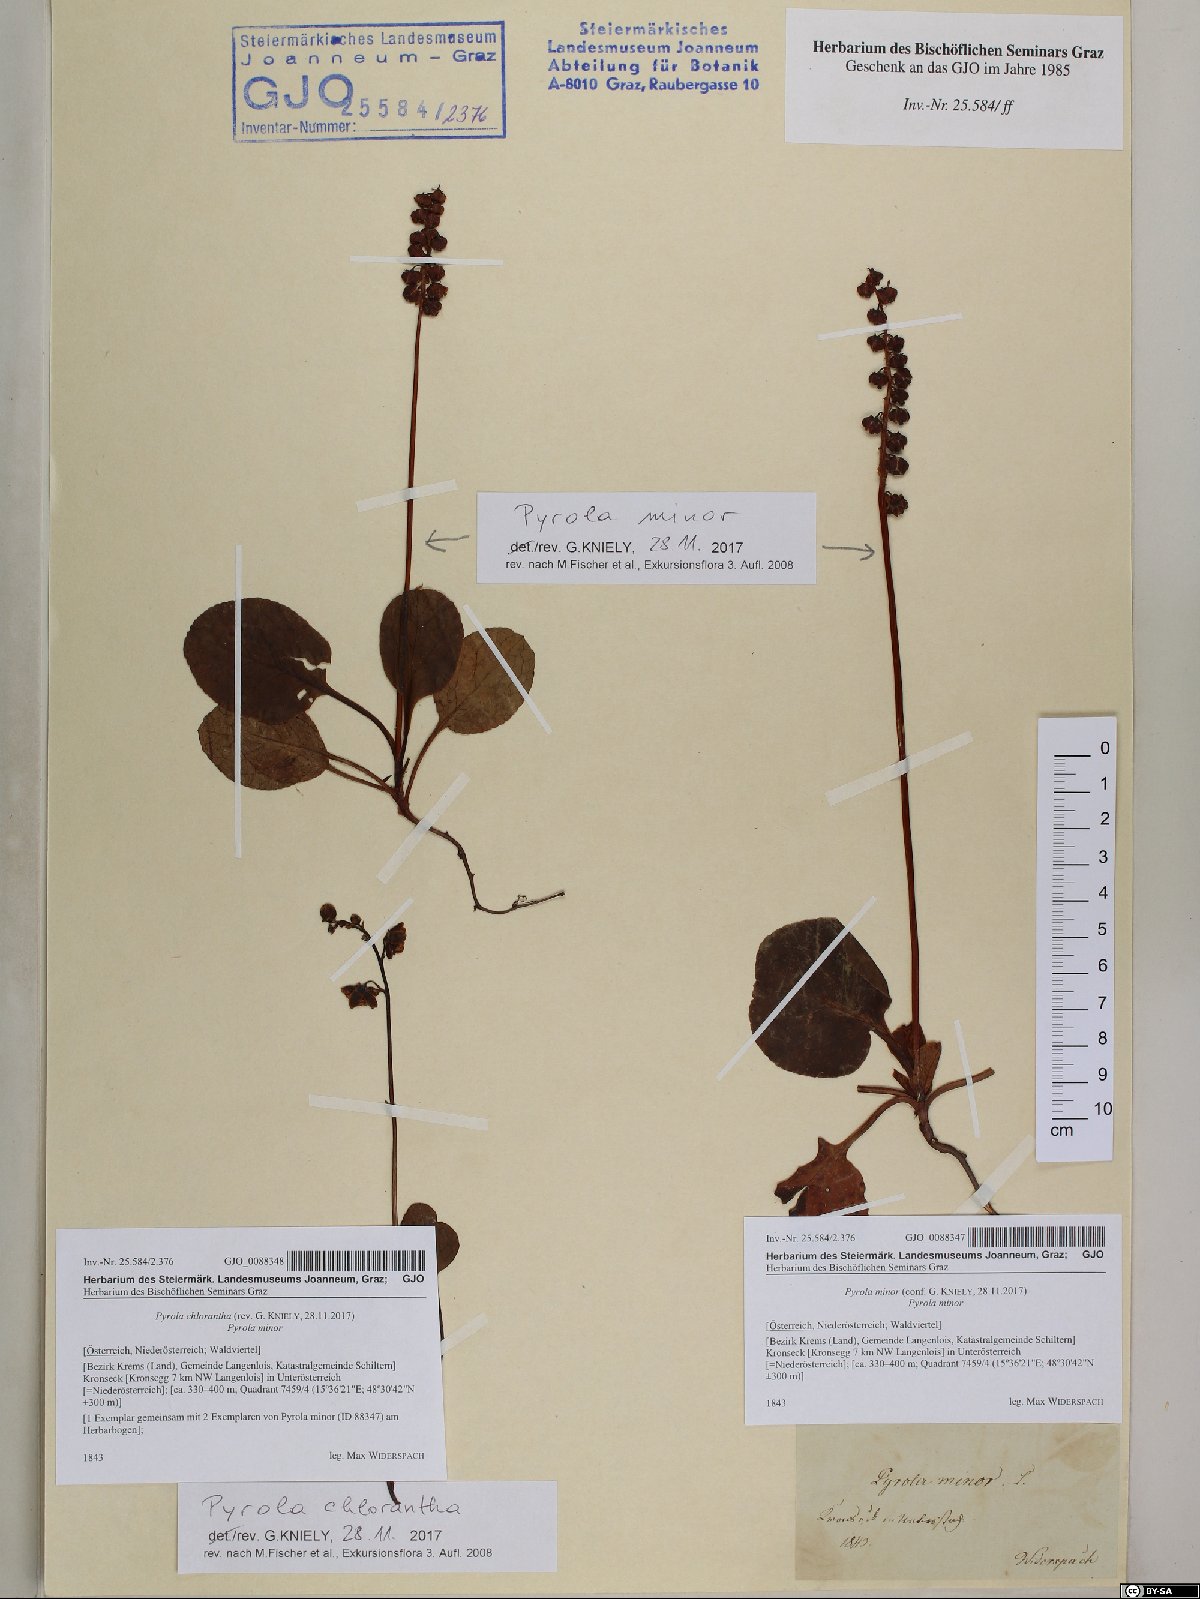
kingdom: Plantae
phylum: Tracheophyta
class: Magnoliopsida
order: Ericales
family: Ericaceae
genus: Pyrola
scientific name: Pyrola minor
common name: Common wintergreen
